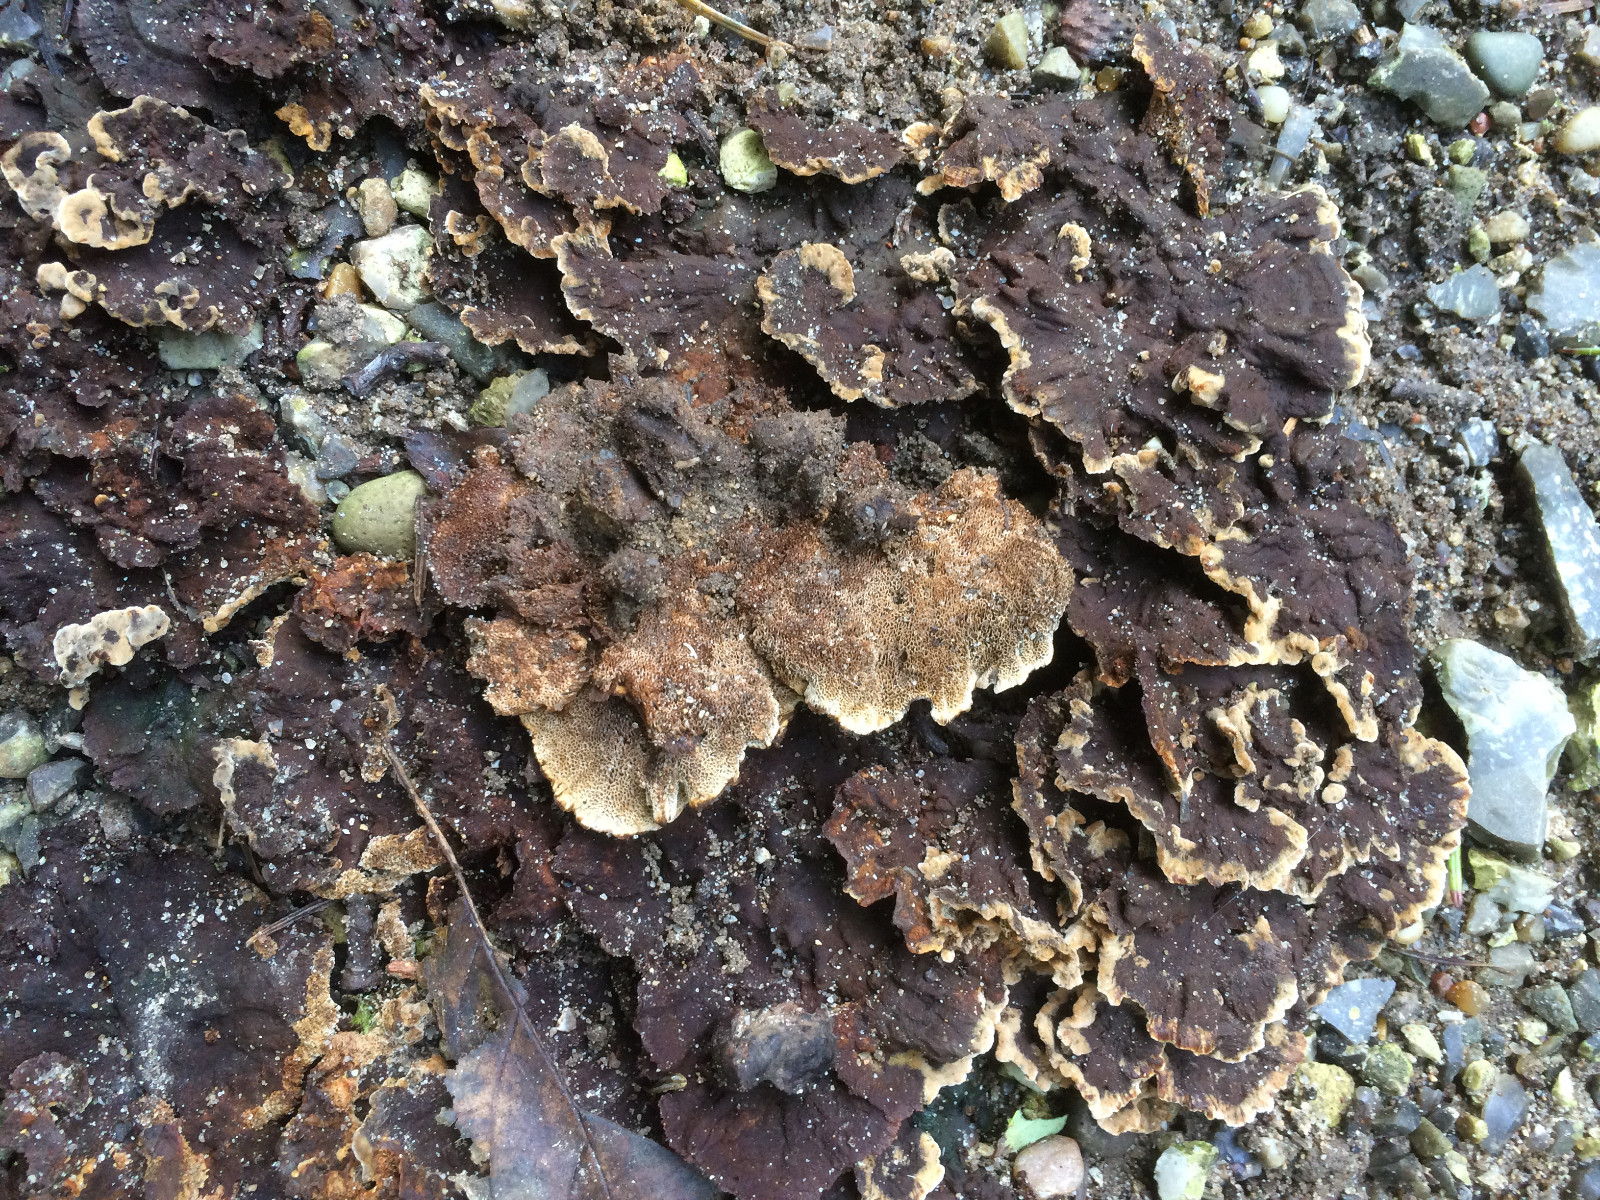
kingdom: Fungi
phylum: Basidiomycota
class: Agaricomycetes
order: Hymenochaetales
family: Hymenochaetaceae
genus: Coltricia
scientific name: Coltricia confluens
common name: park-sandporesvamp
